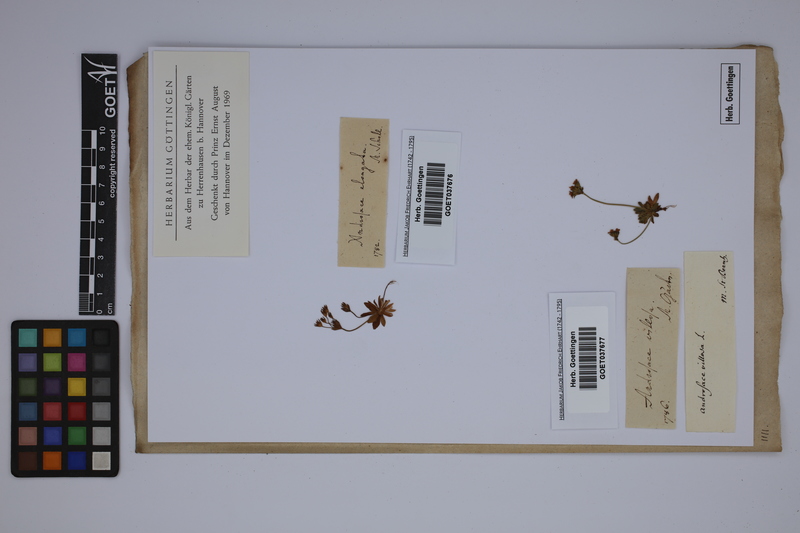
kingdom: Plantae
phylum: Tracheophyta
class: Magnoliopsida
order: Ericales
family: Primulaceae
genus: Androsace
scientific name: Androsace villosa
